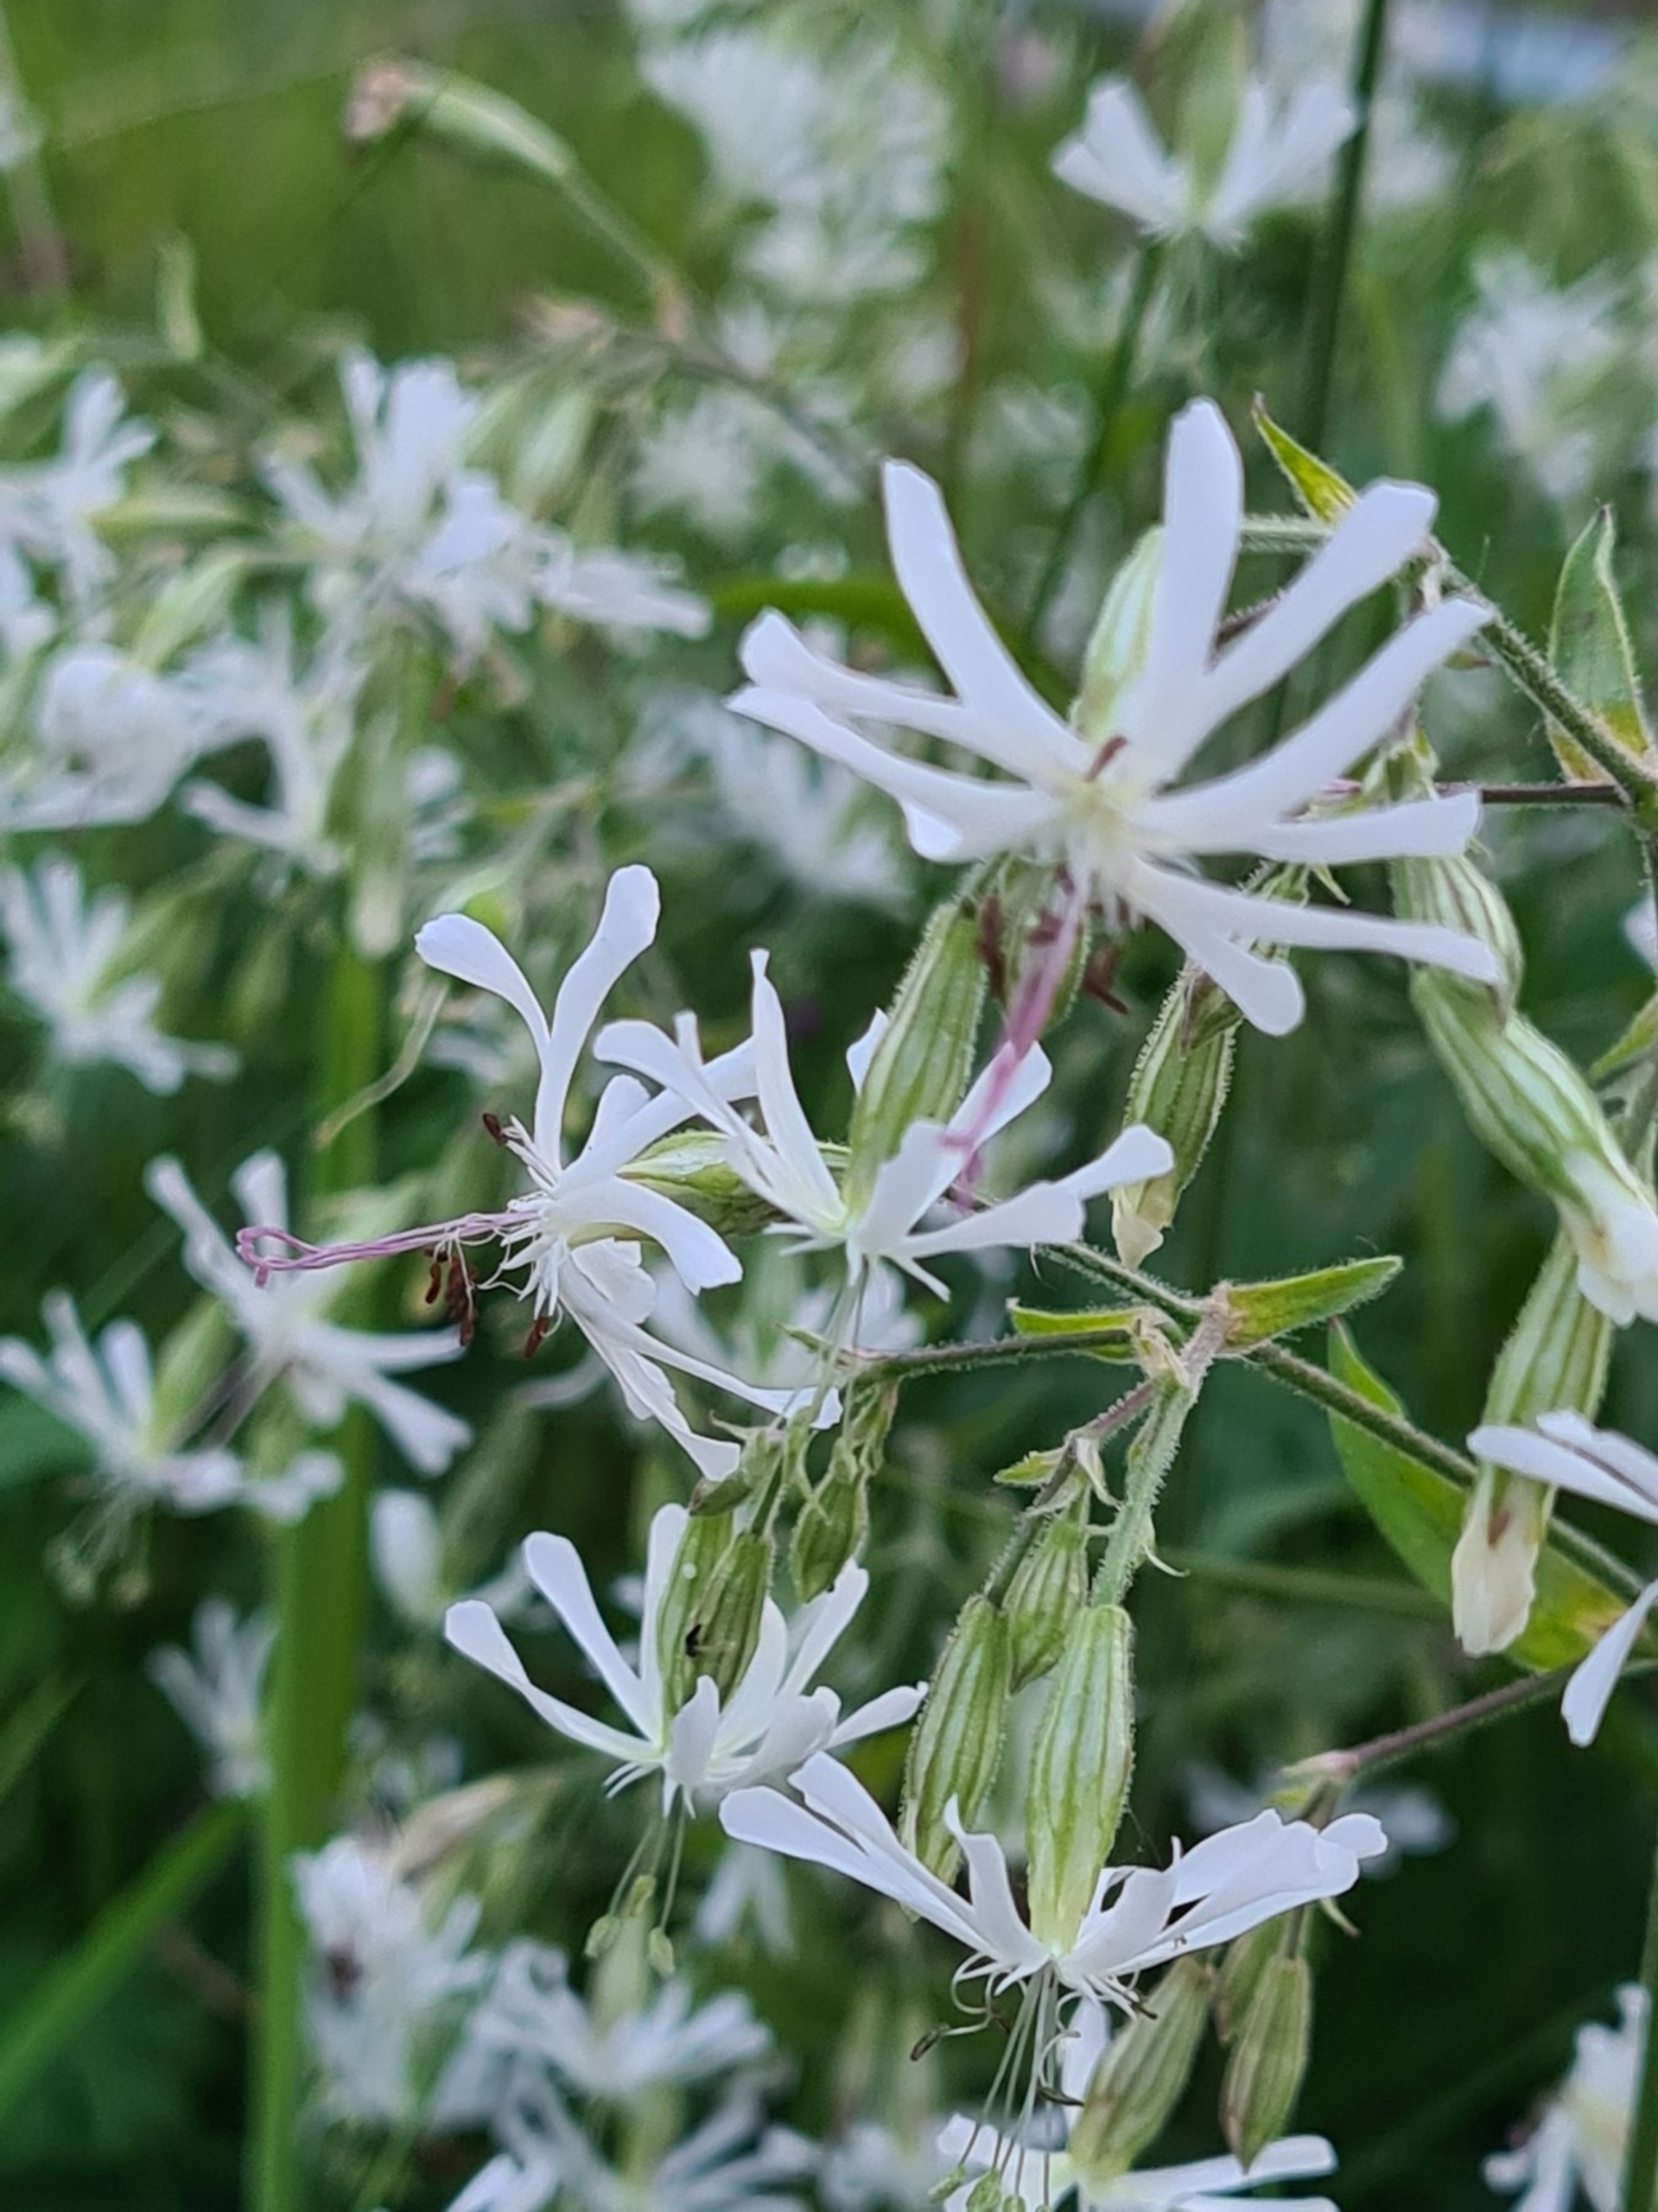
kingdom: Plantae
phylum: Tracheophyta
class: Magnoliopsida
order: Caryophyllales
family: Caryophyllaceae
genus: Silene
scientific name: Silene nutans
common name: Nikkende limurt
